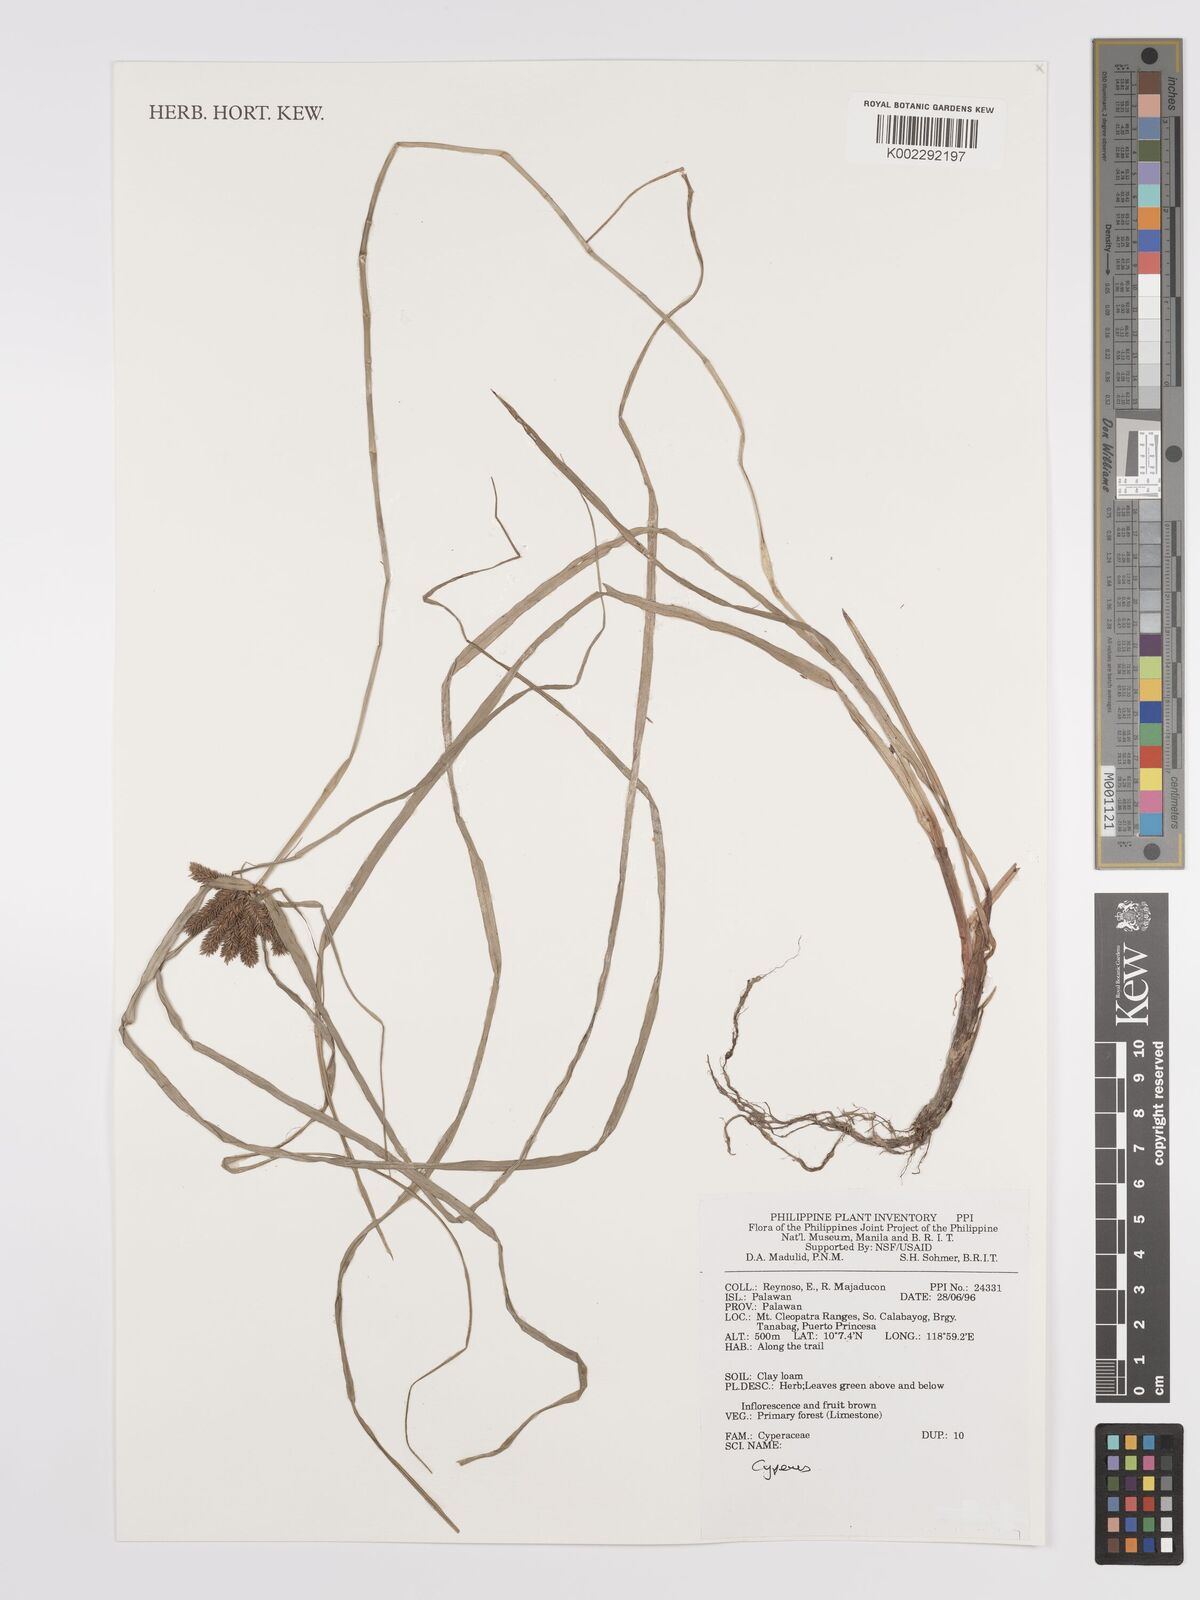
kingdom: Plantae
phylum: Tracheophyta
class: Liliopsida
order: Poales
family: Cyperaceae
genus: Cyperus
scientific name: Cyperus
